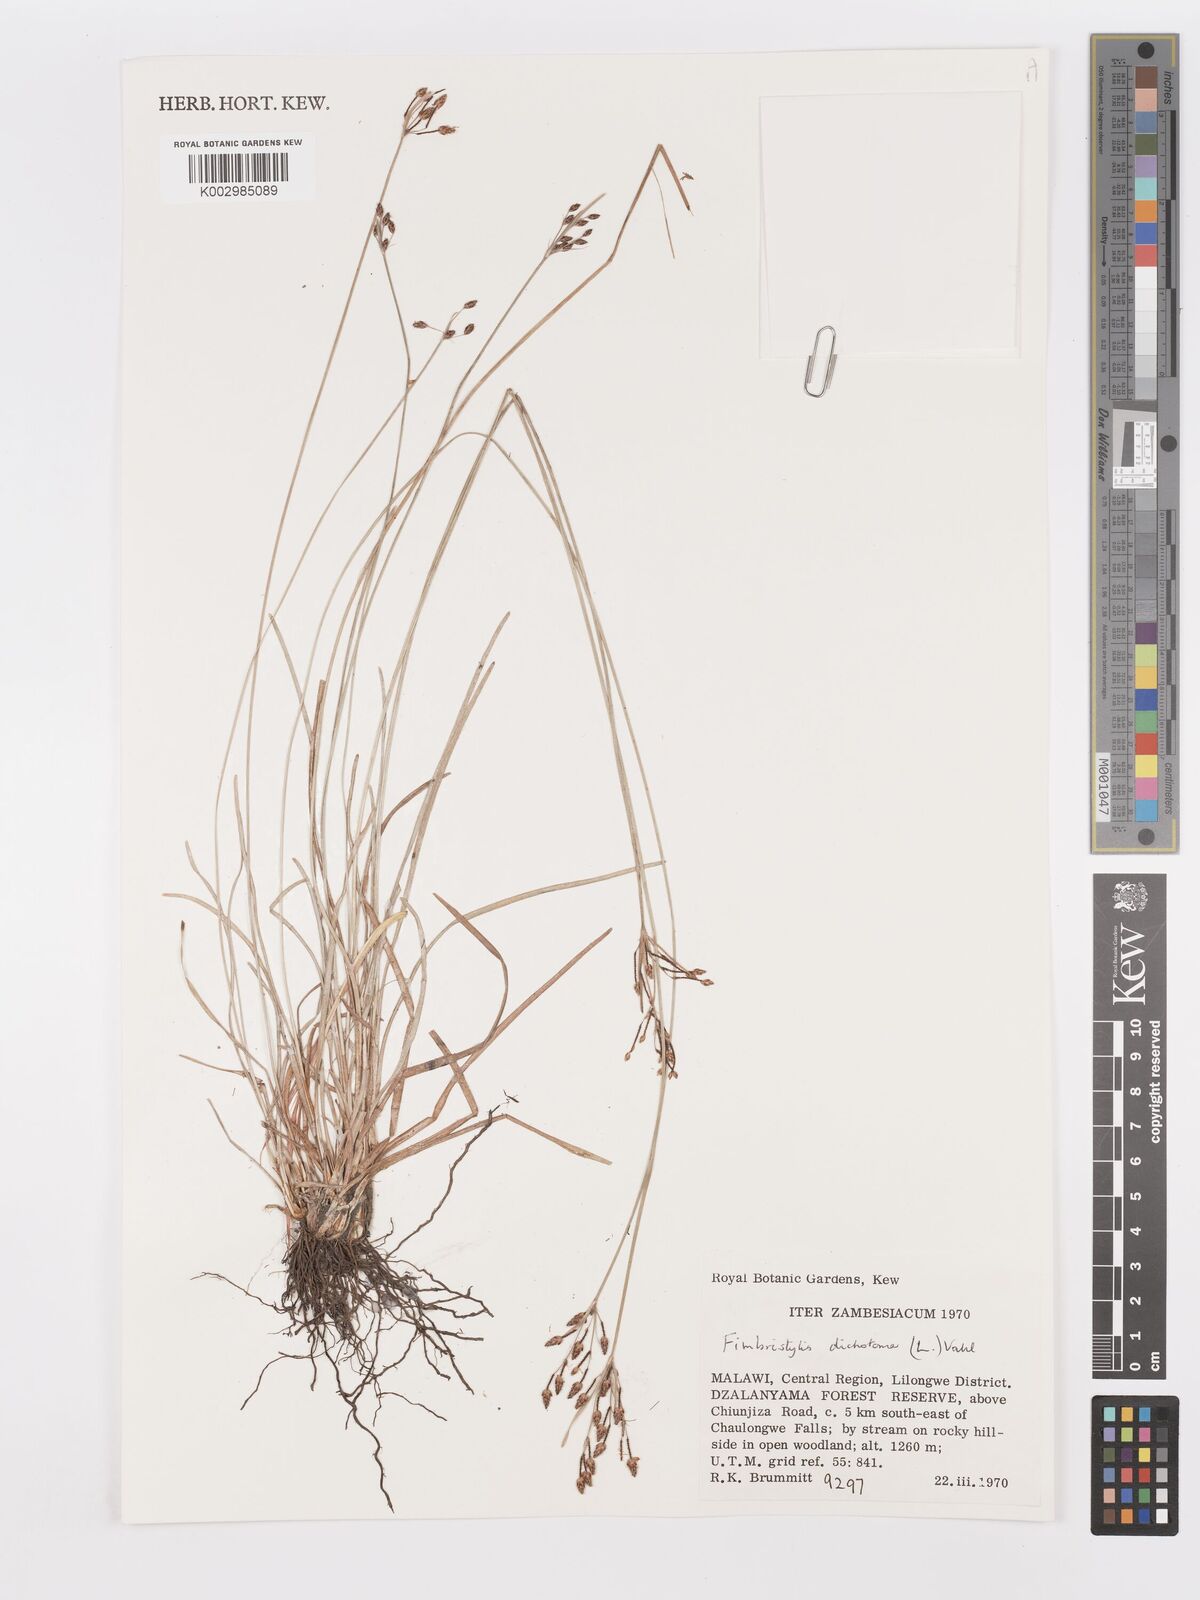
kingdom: Plantae
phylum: Tracheophyta
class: Liliopsida
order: Poales
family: Cyperaceae
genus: Fimbristylis
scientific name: Fimbristylis dichotoma
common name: Forked fimbry
